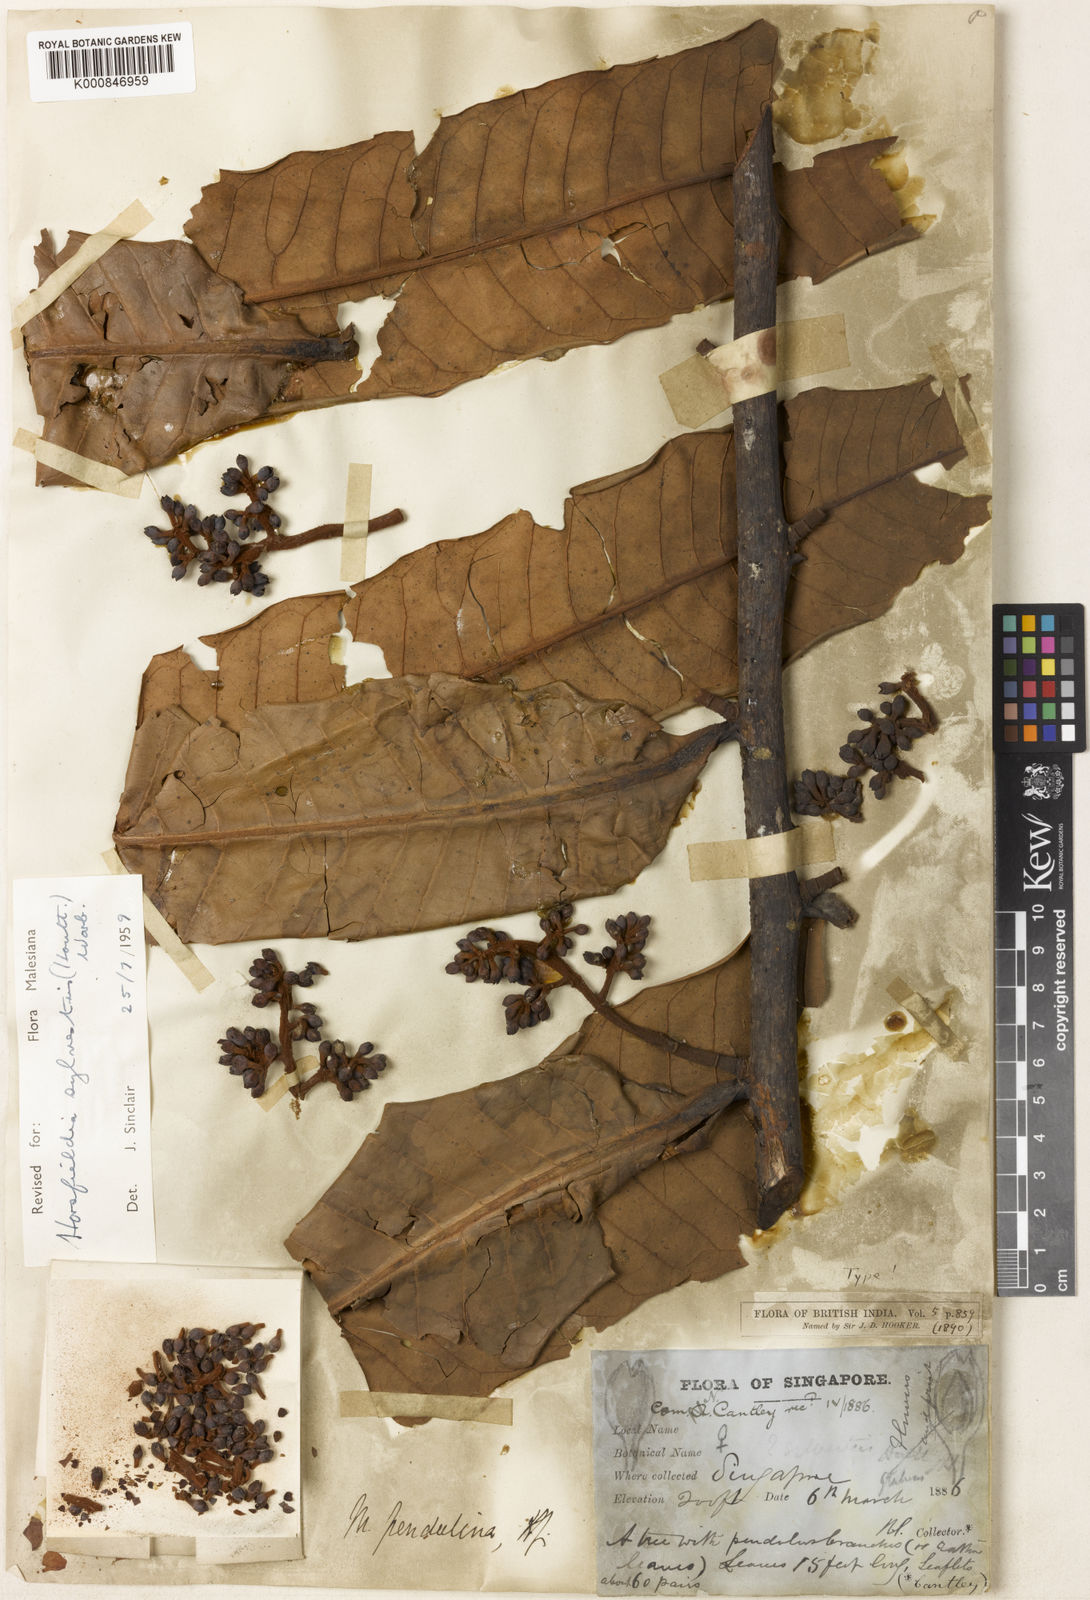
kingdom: Plantae
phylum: Tracheophyta
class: Magnoliopsida
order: Magnoliales
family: Myristicaceae
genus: Horsfieldia
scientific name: Horsfieldia sylvestris
